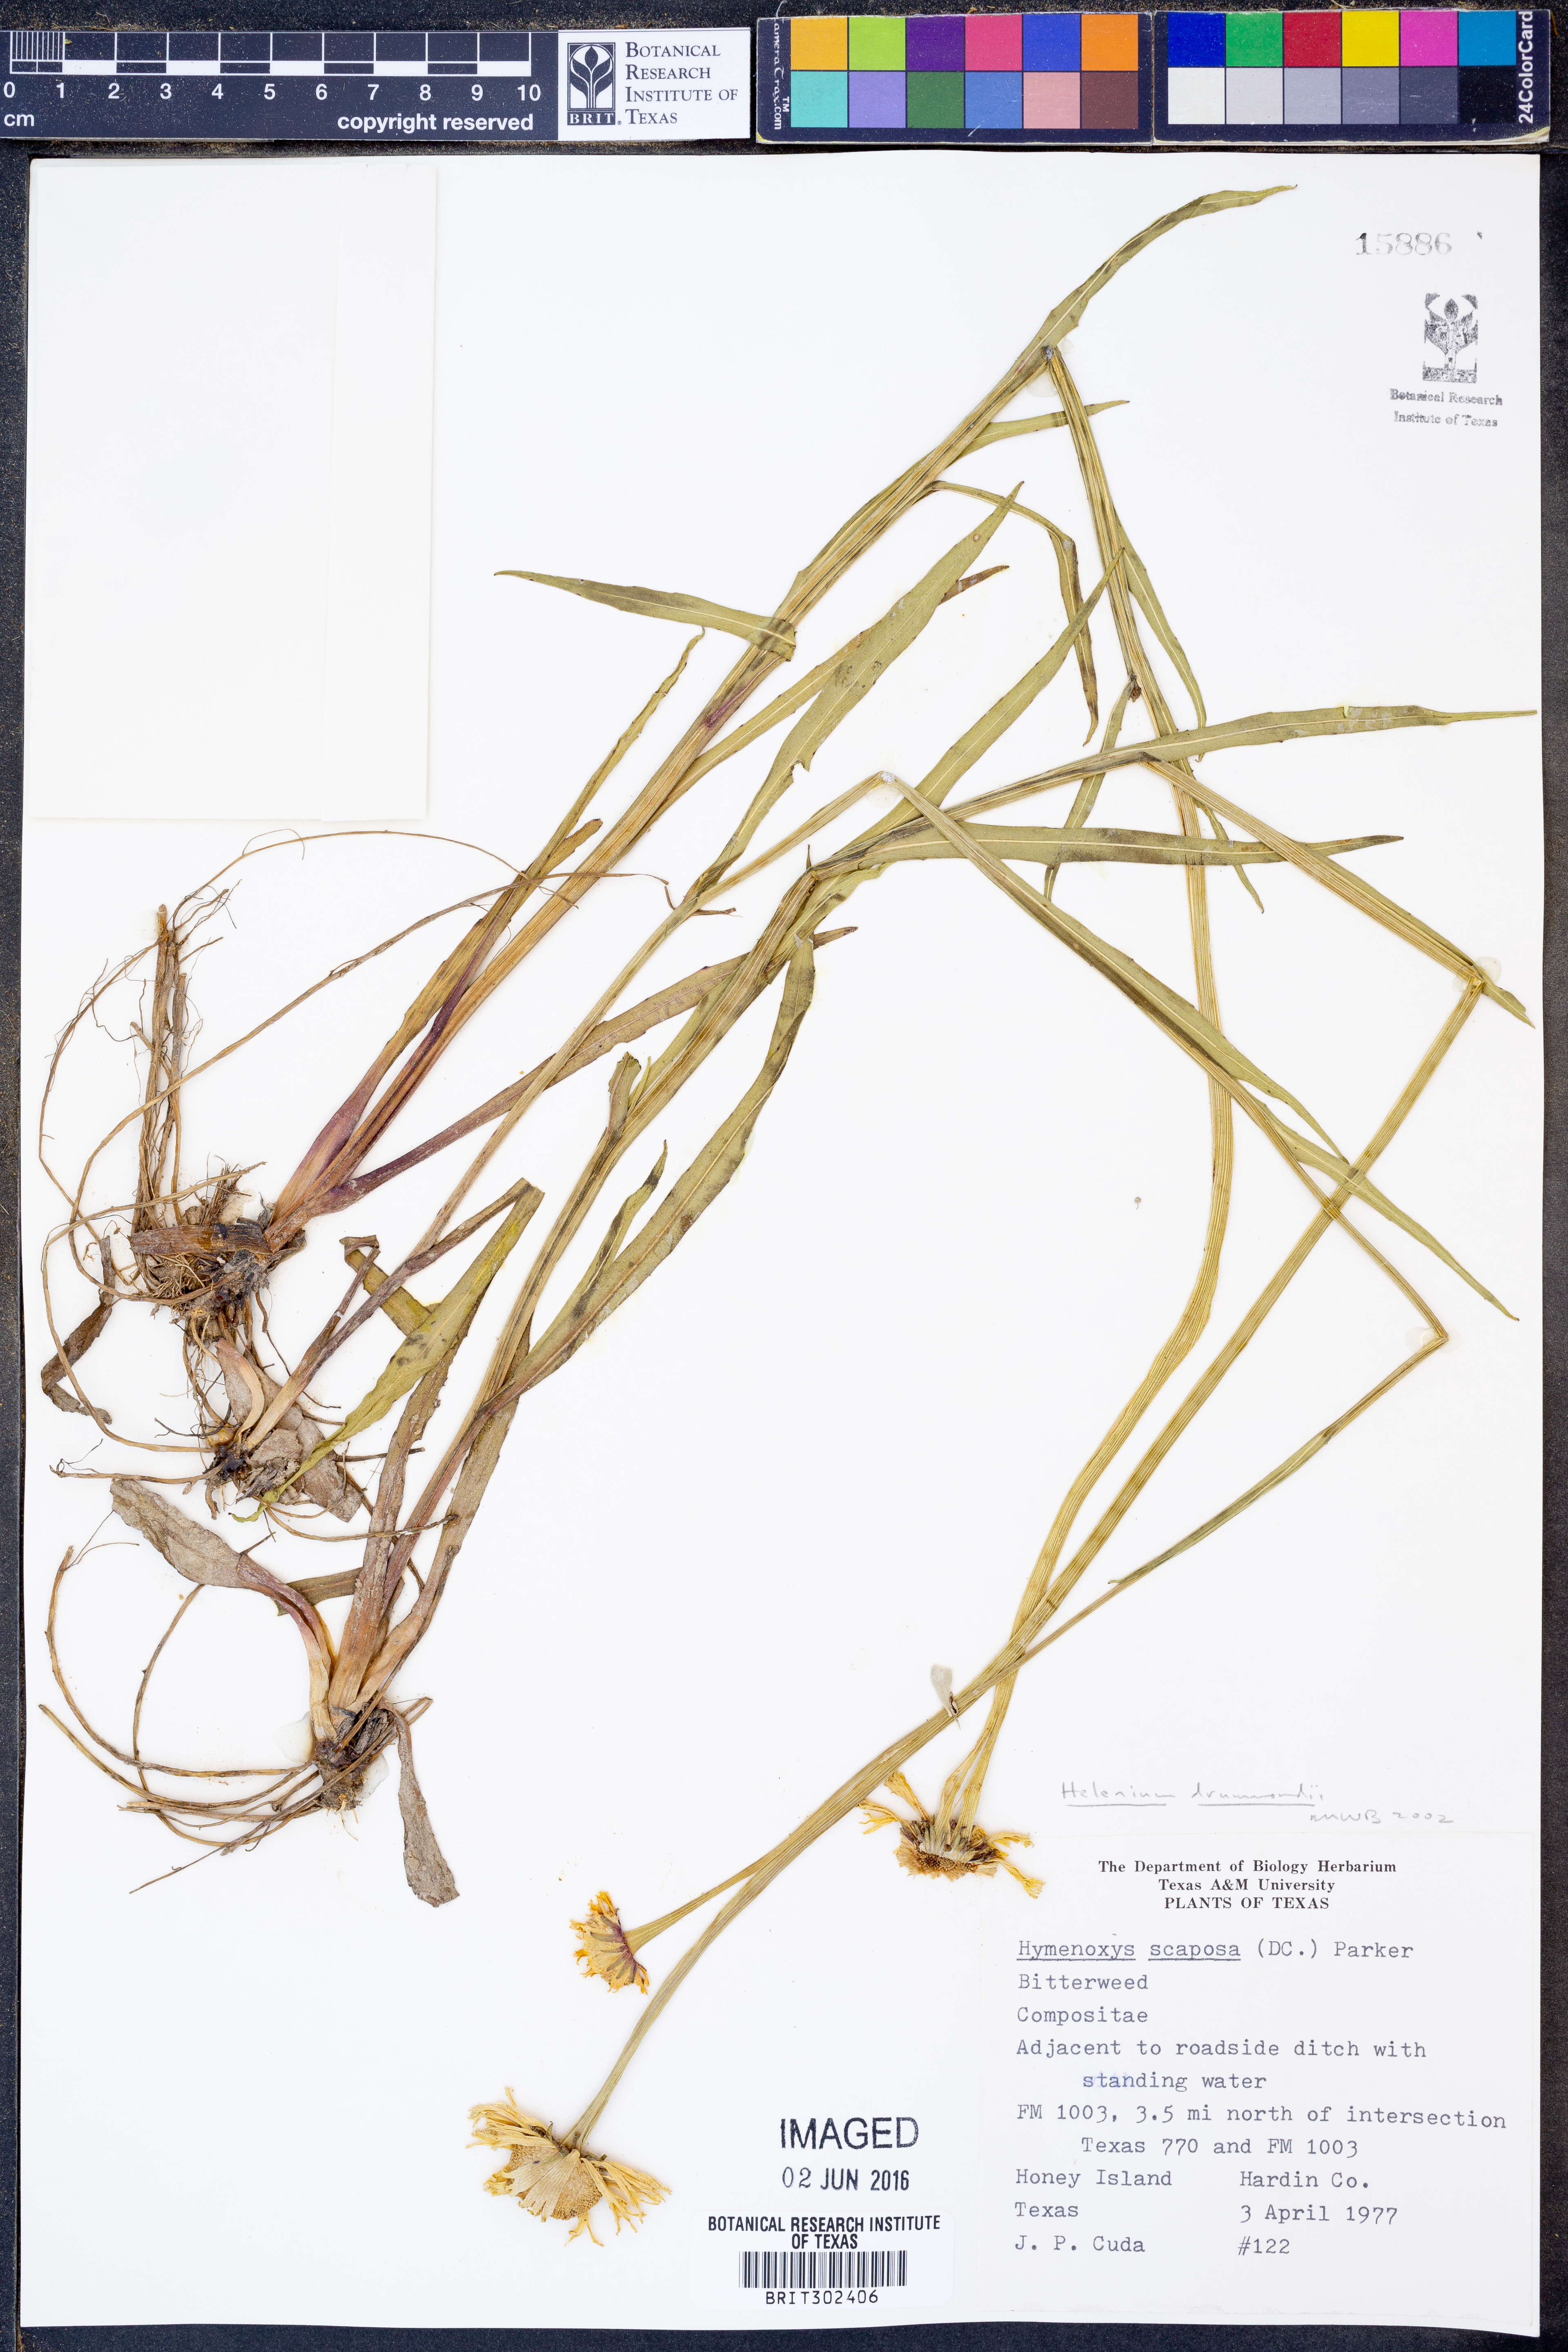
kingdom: Plantae
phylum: Tracheophyta
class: Magnoliopsida
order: Asterales
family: Asteraceae
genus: Helenium
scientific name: Helenium drummondii
